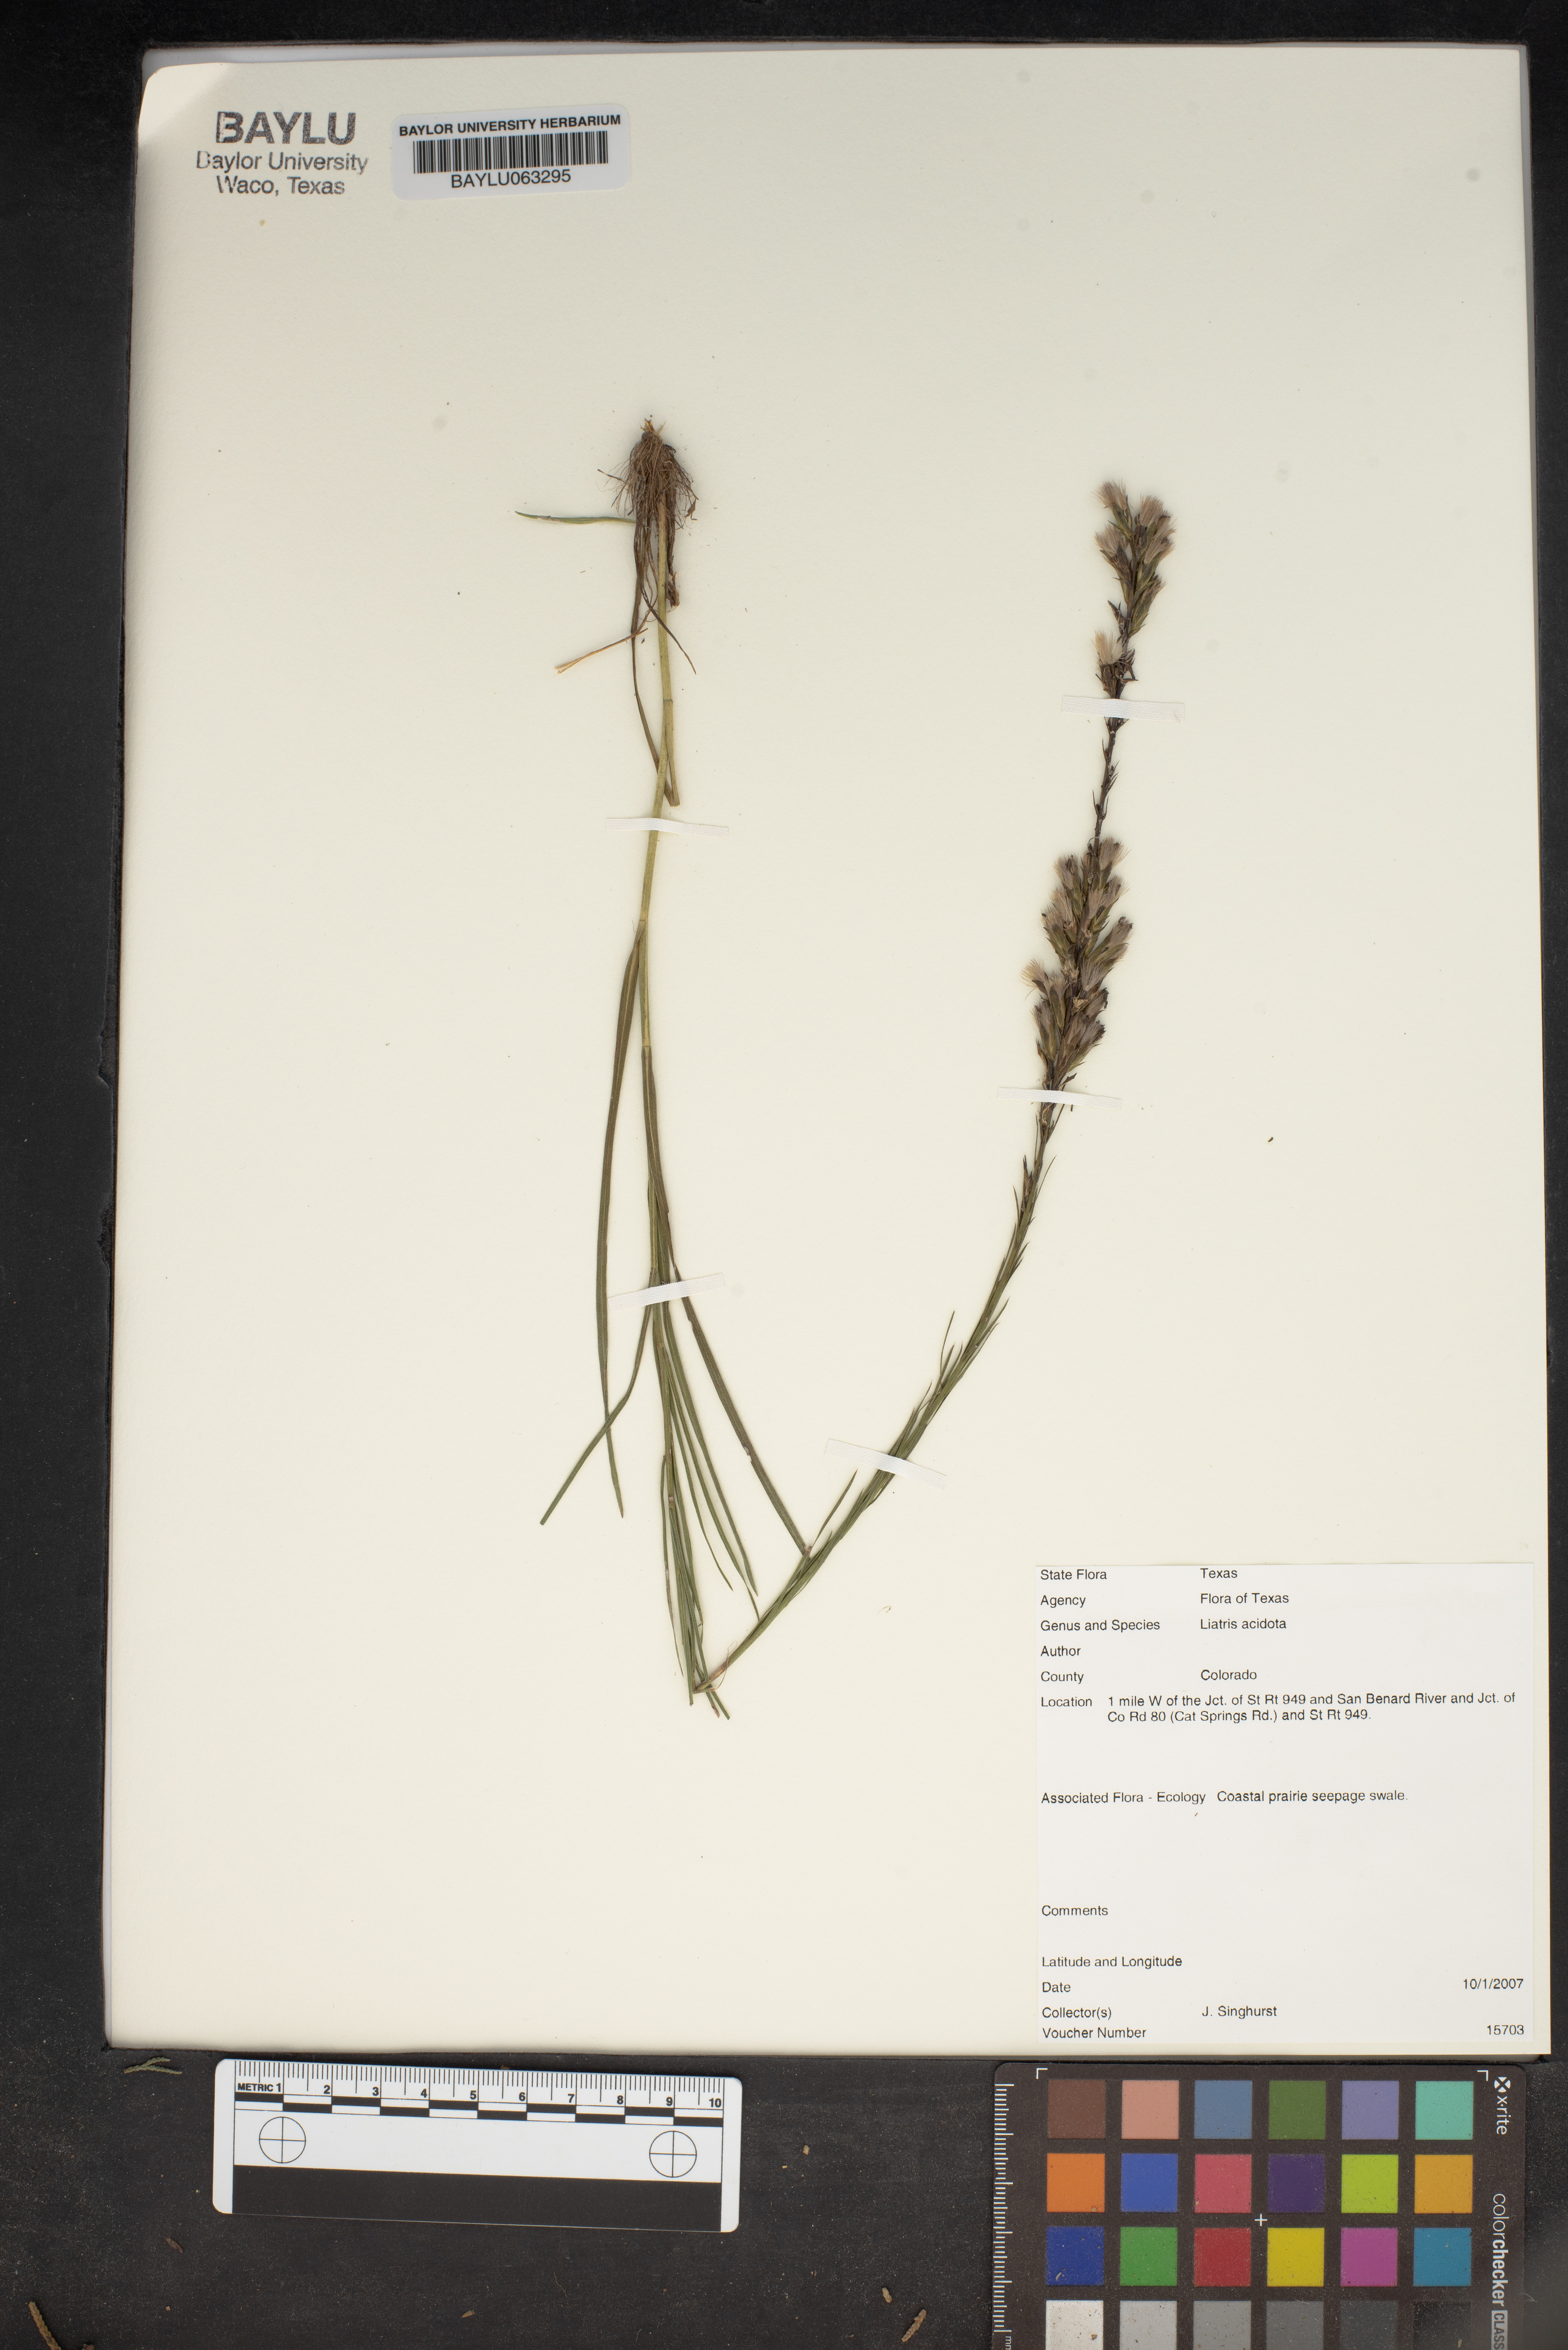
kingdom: Plantae
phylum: Tracheophyta
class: Magnoliopsida
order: Asterales
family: Asteraceae
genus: Liatris
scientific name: Liatris acidota
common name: Gulf coast gayfeather
